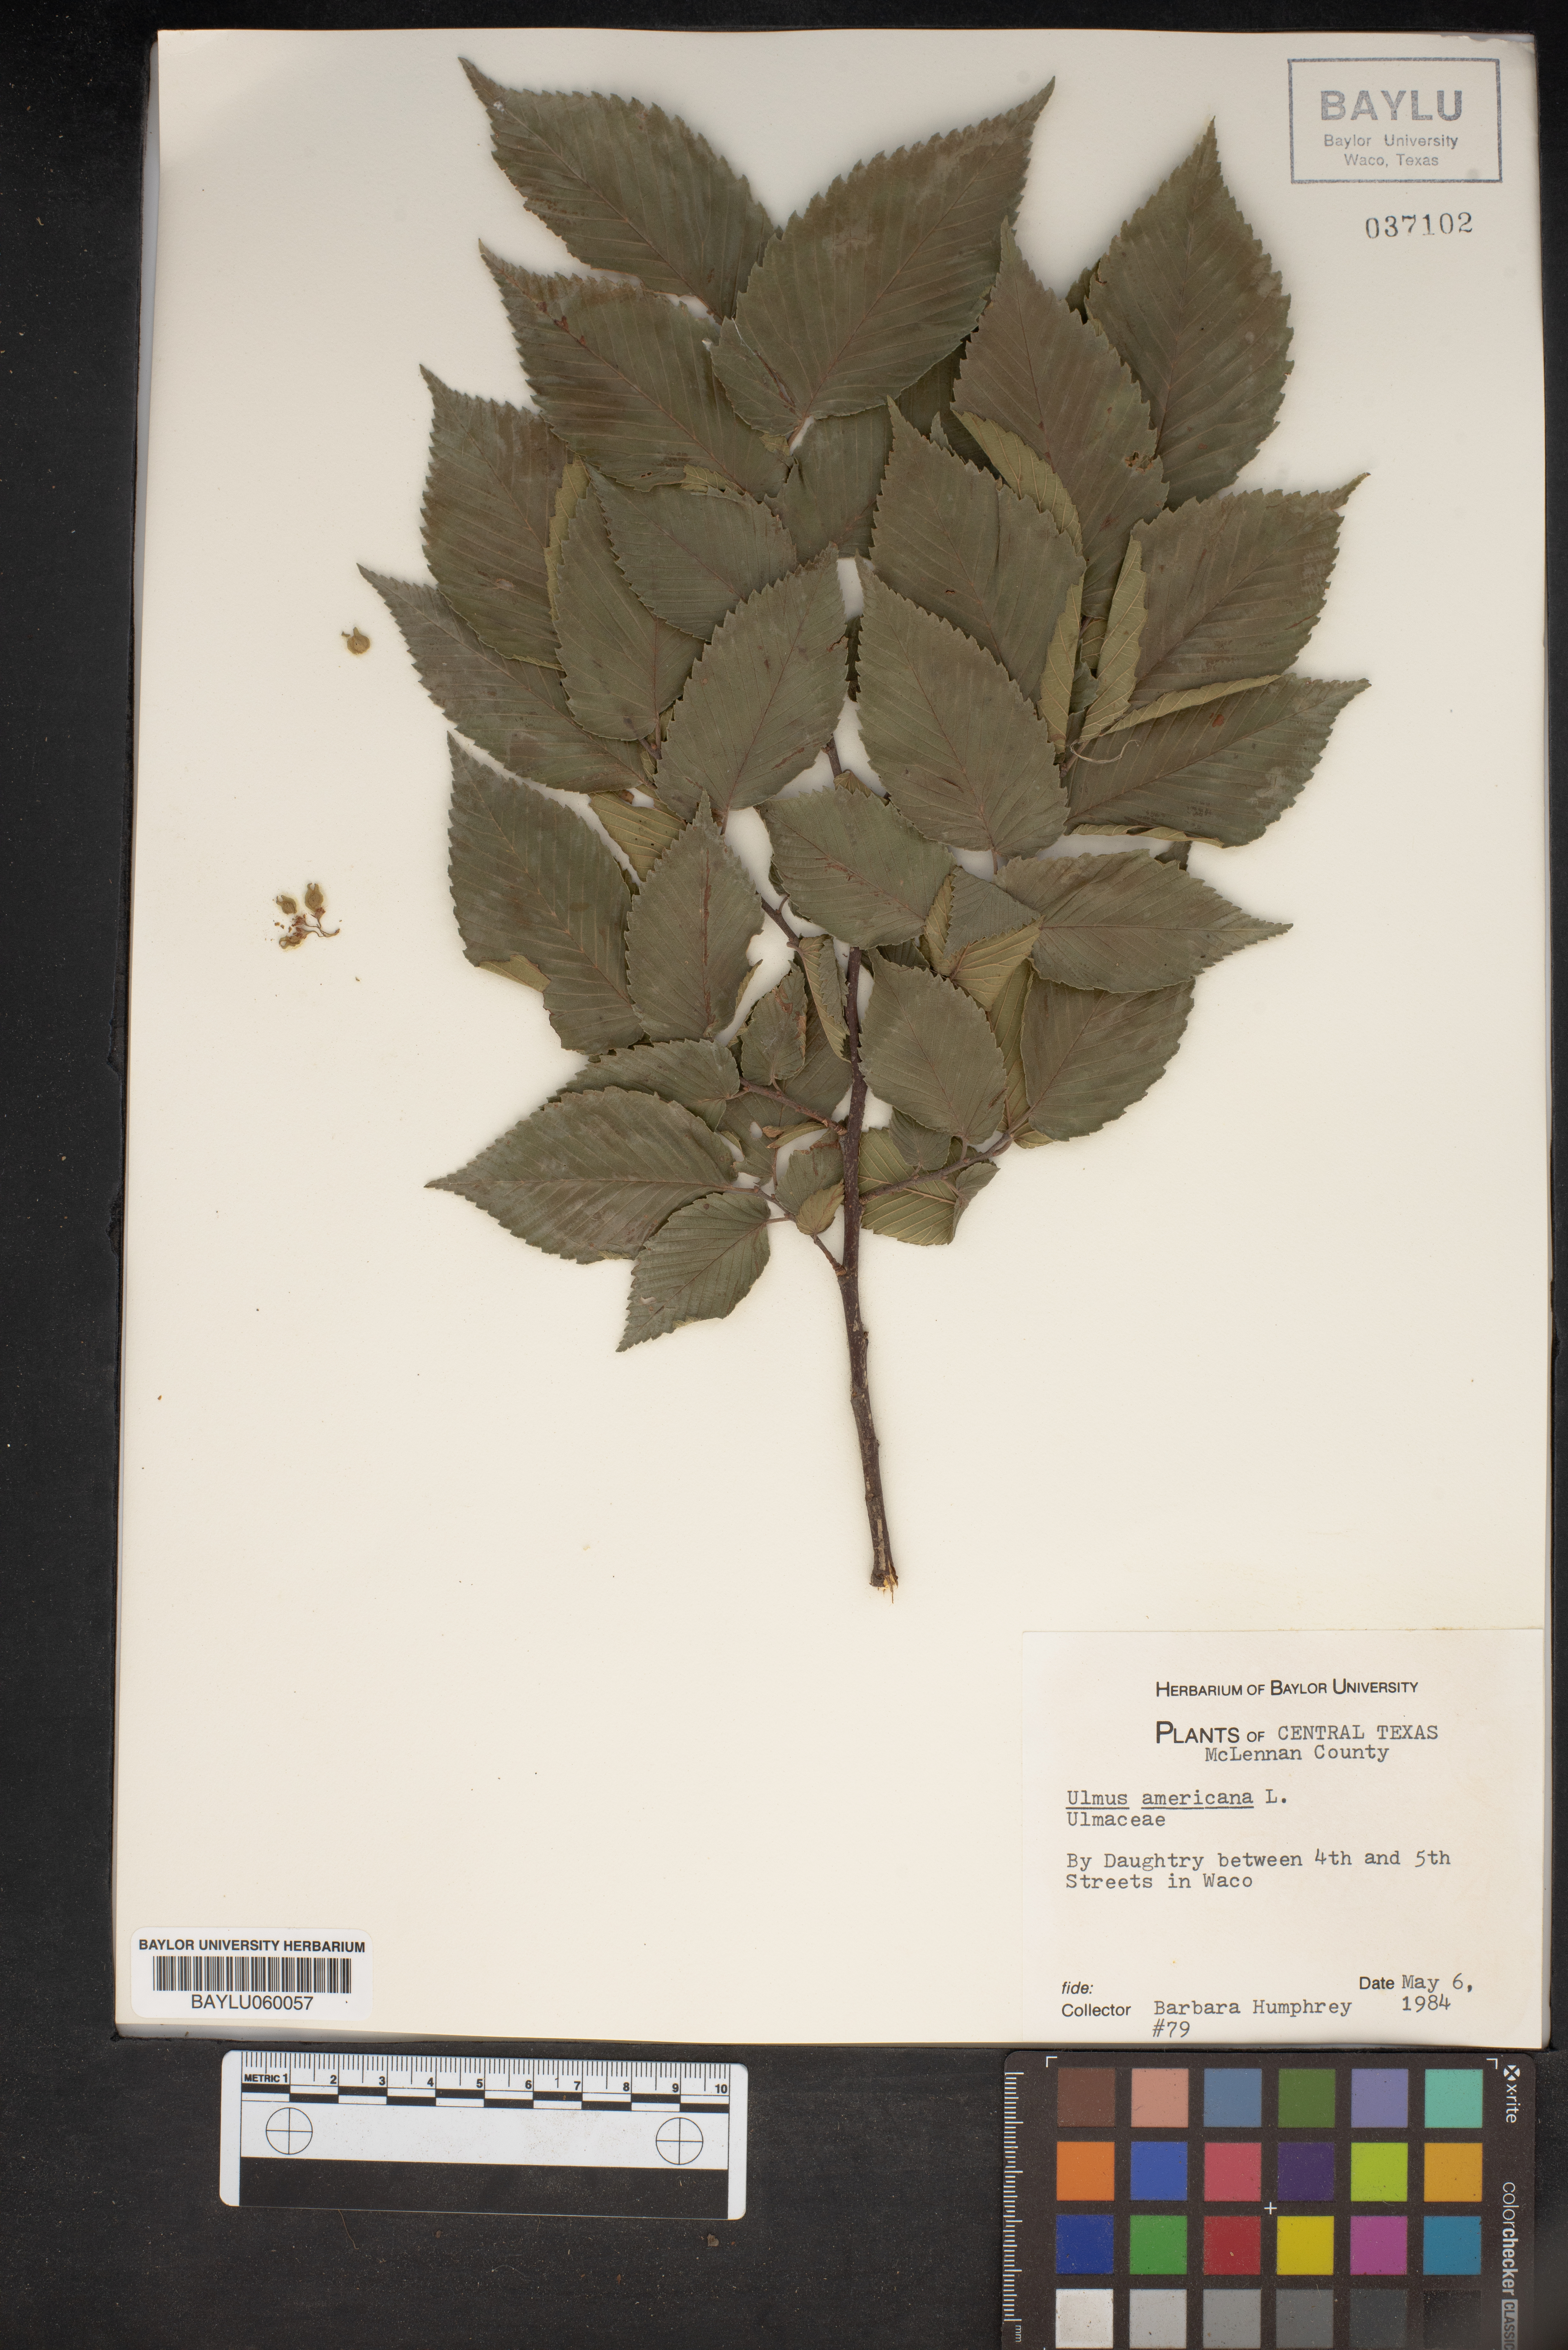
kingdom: Plantae
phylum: Tracheophyta
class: Magnoliopsida
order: Rosales
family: Ulmaceae
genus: Ulmus
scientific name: Ulmus americana
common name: American elm
